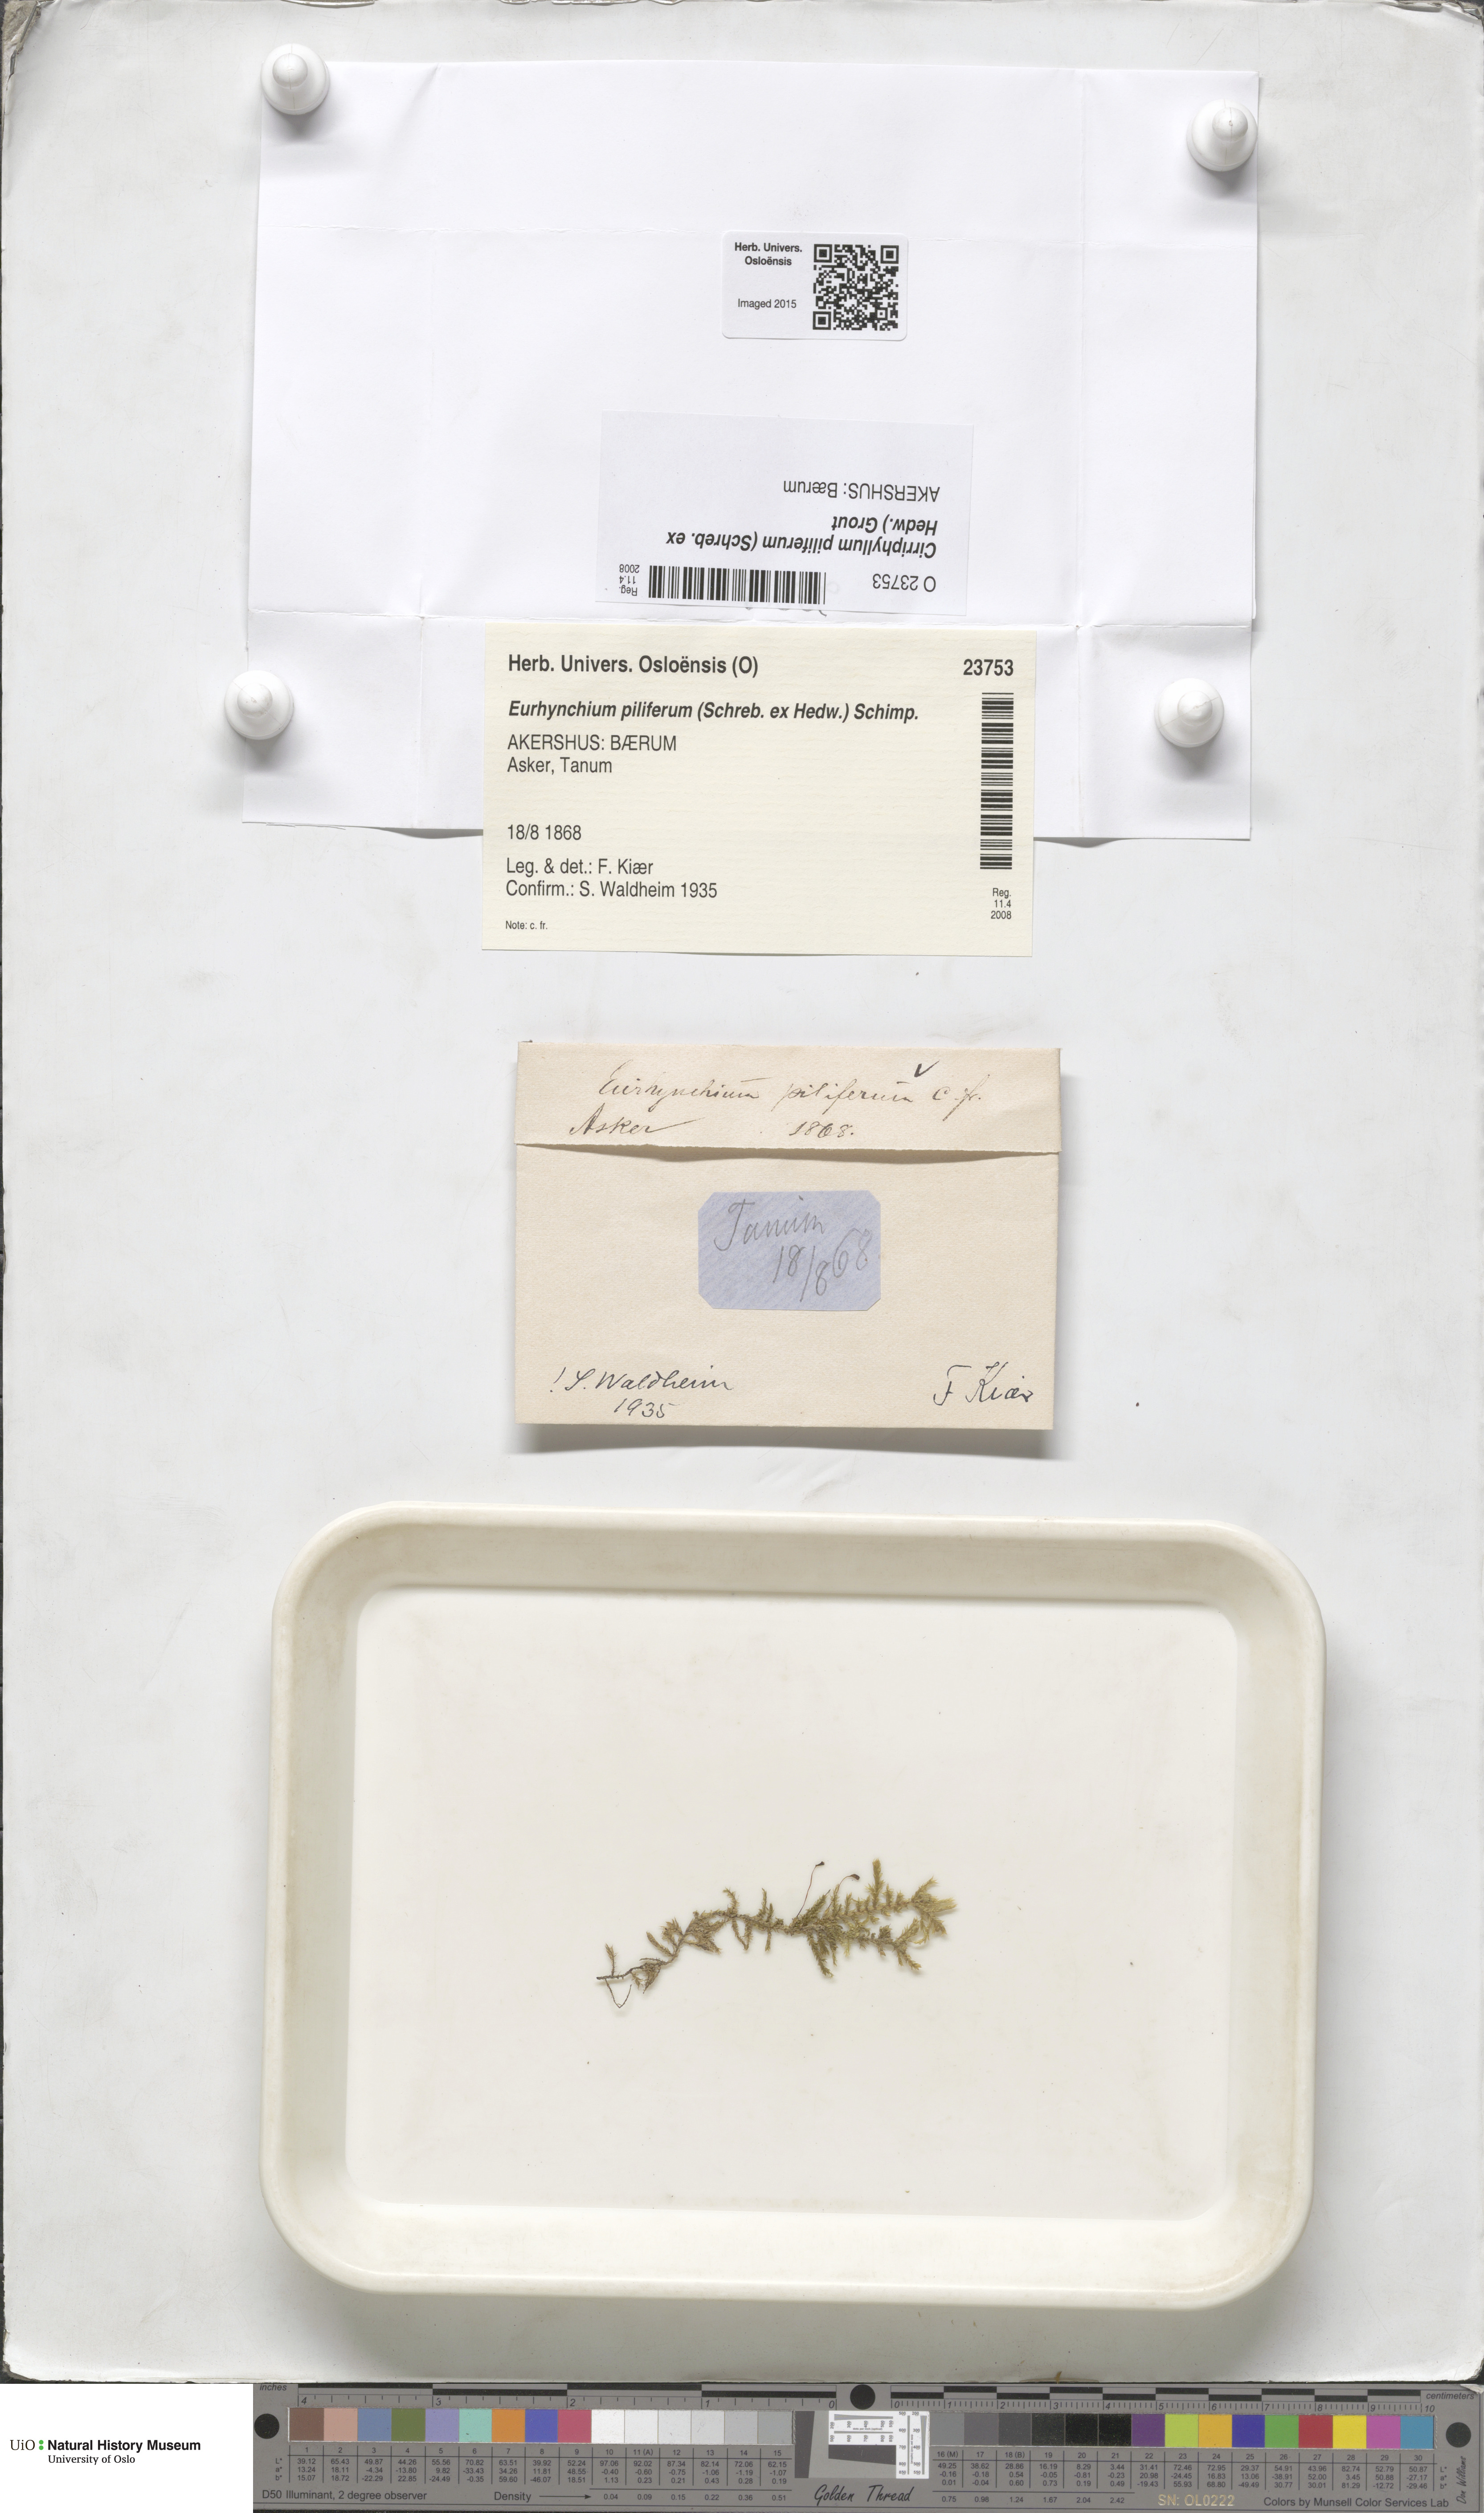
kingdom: Plantae
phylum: Bryophyta
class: Bryopsida
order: Hypnales
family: Brachytheciaceae
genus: Cirriphyllum
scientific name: Cirriphyllum piliferum
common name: Hair-pointed moss
